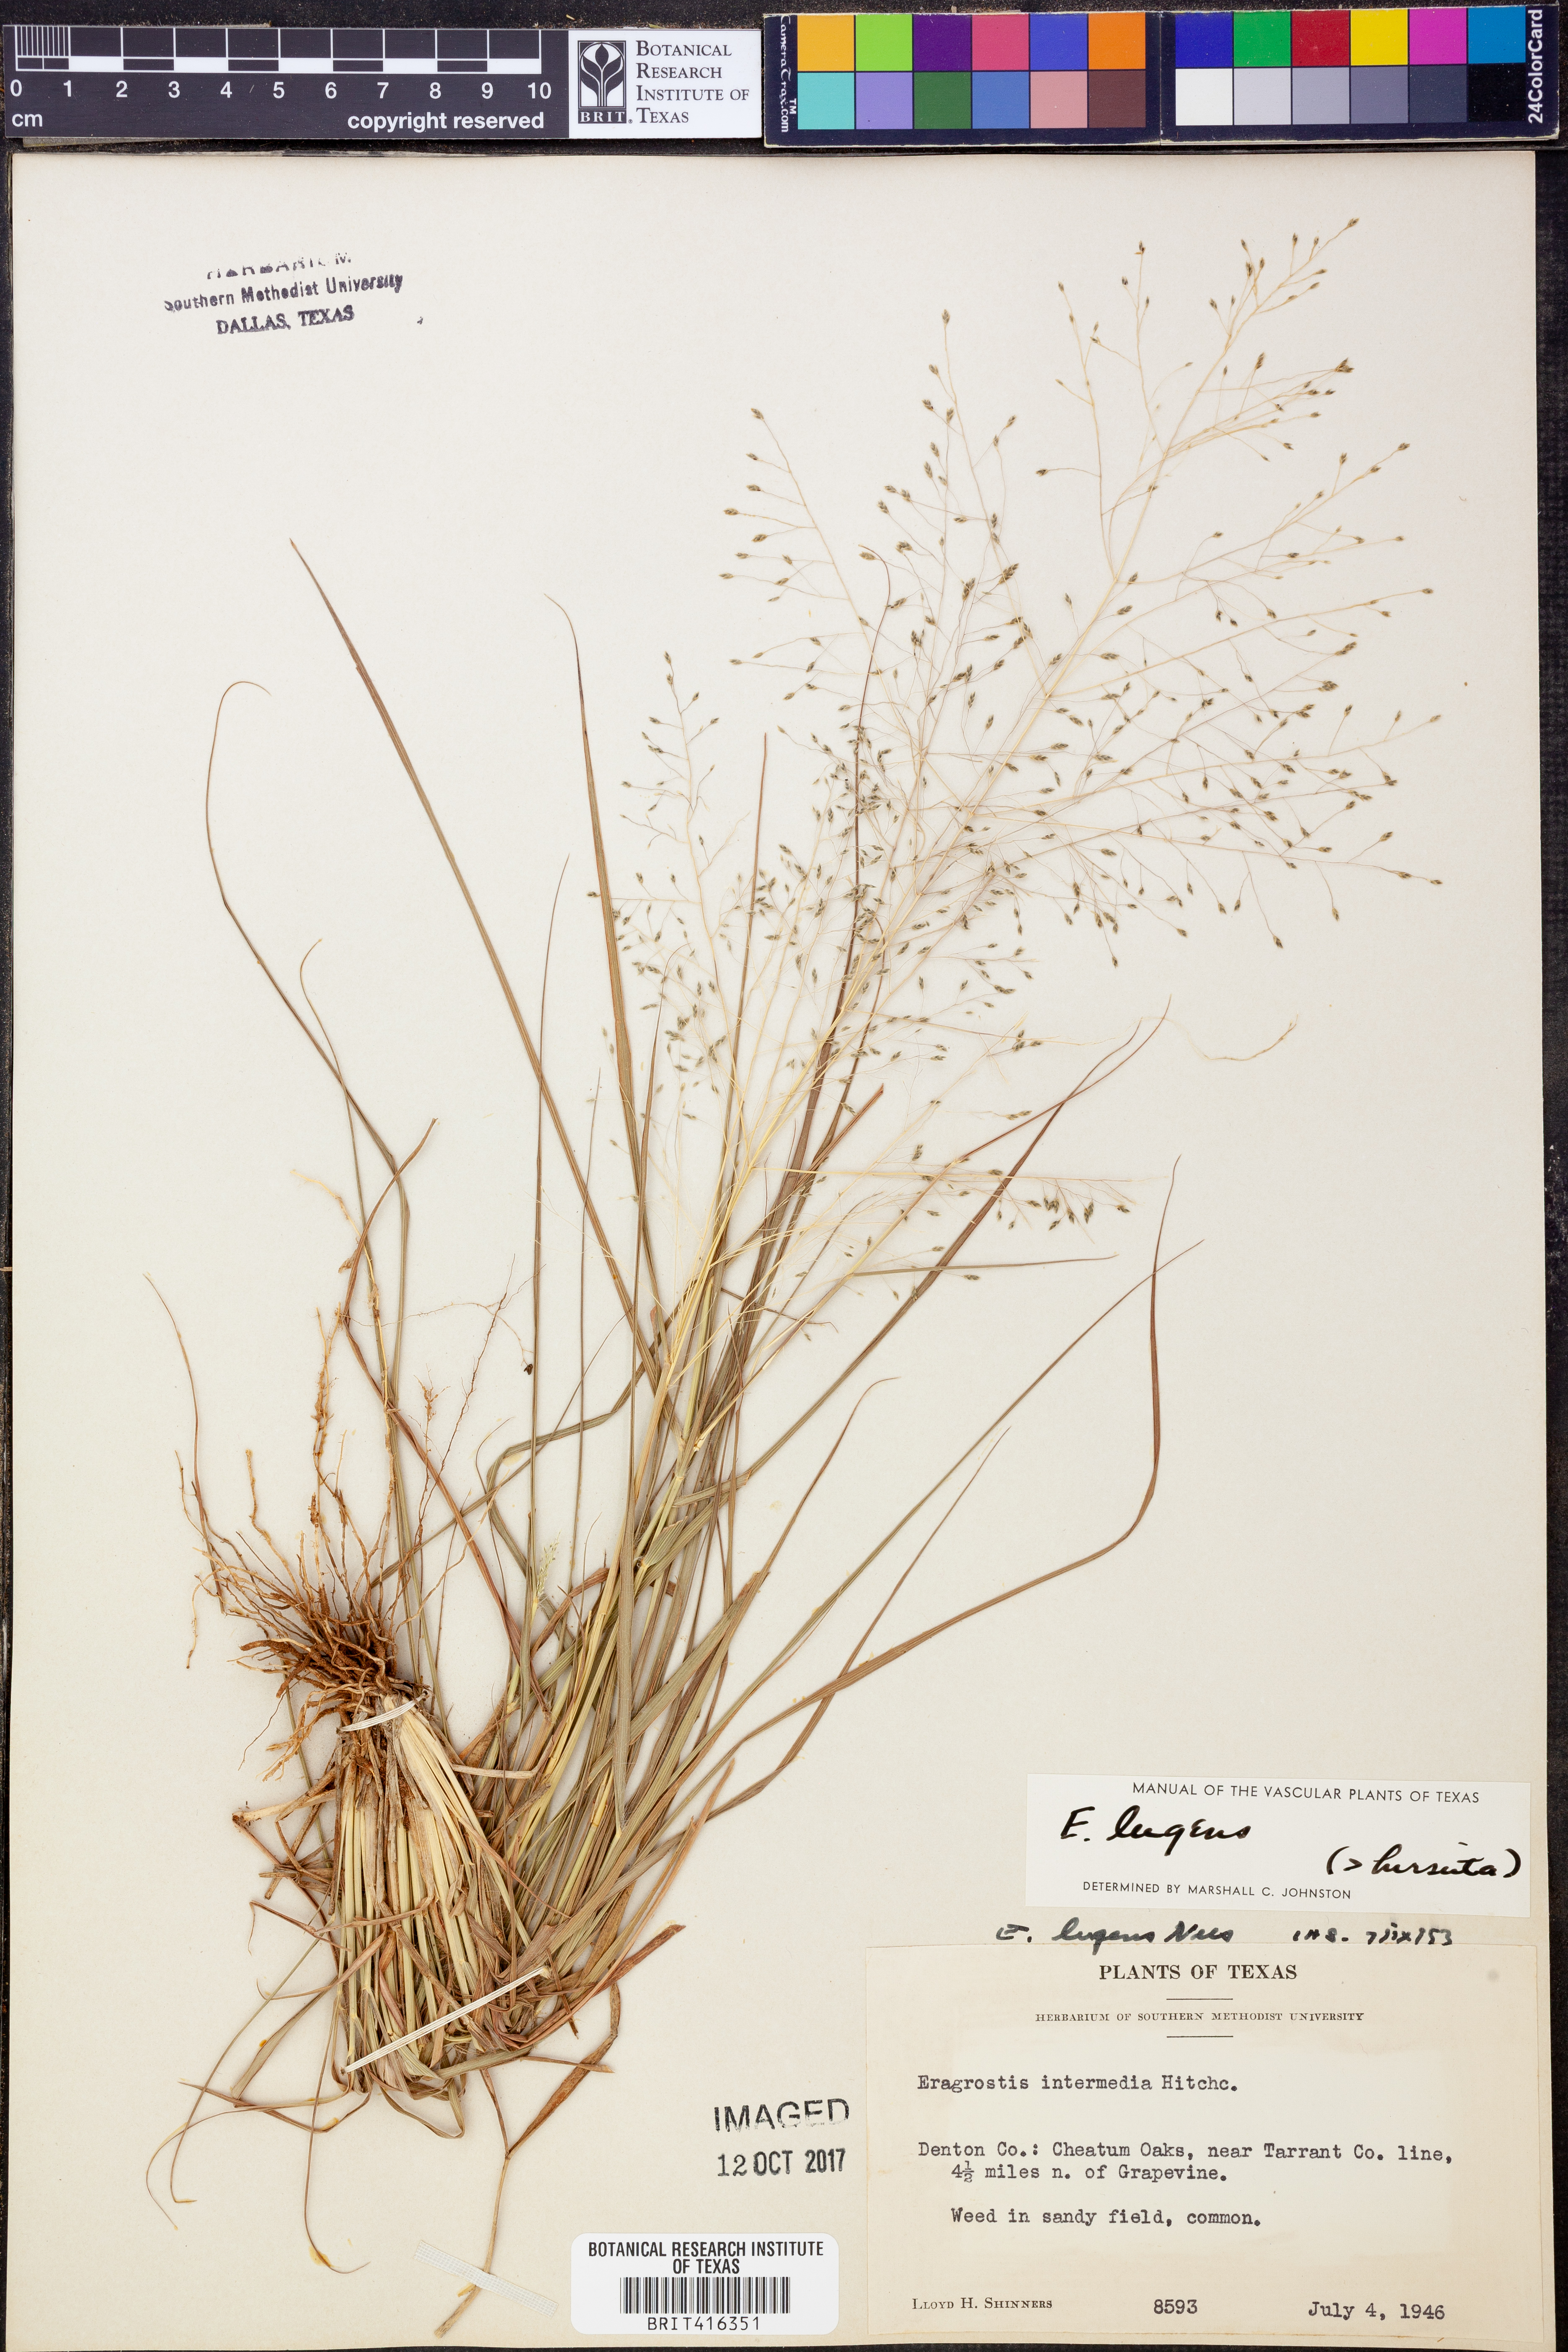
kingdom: Plantae
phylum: Tracheophyta
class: Liliopsida
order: Poales
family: Poaceae
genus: Eragrostis
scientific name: Eragrostis capillaris
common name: Hair-like lovegrass
